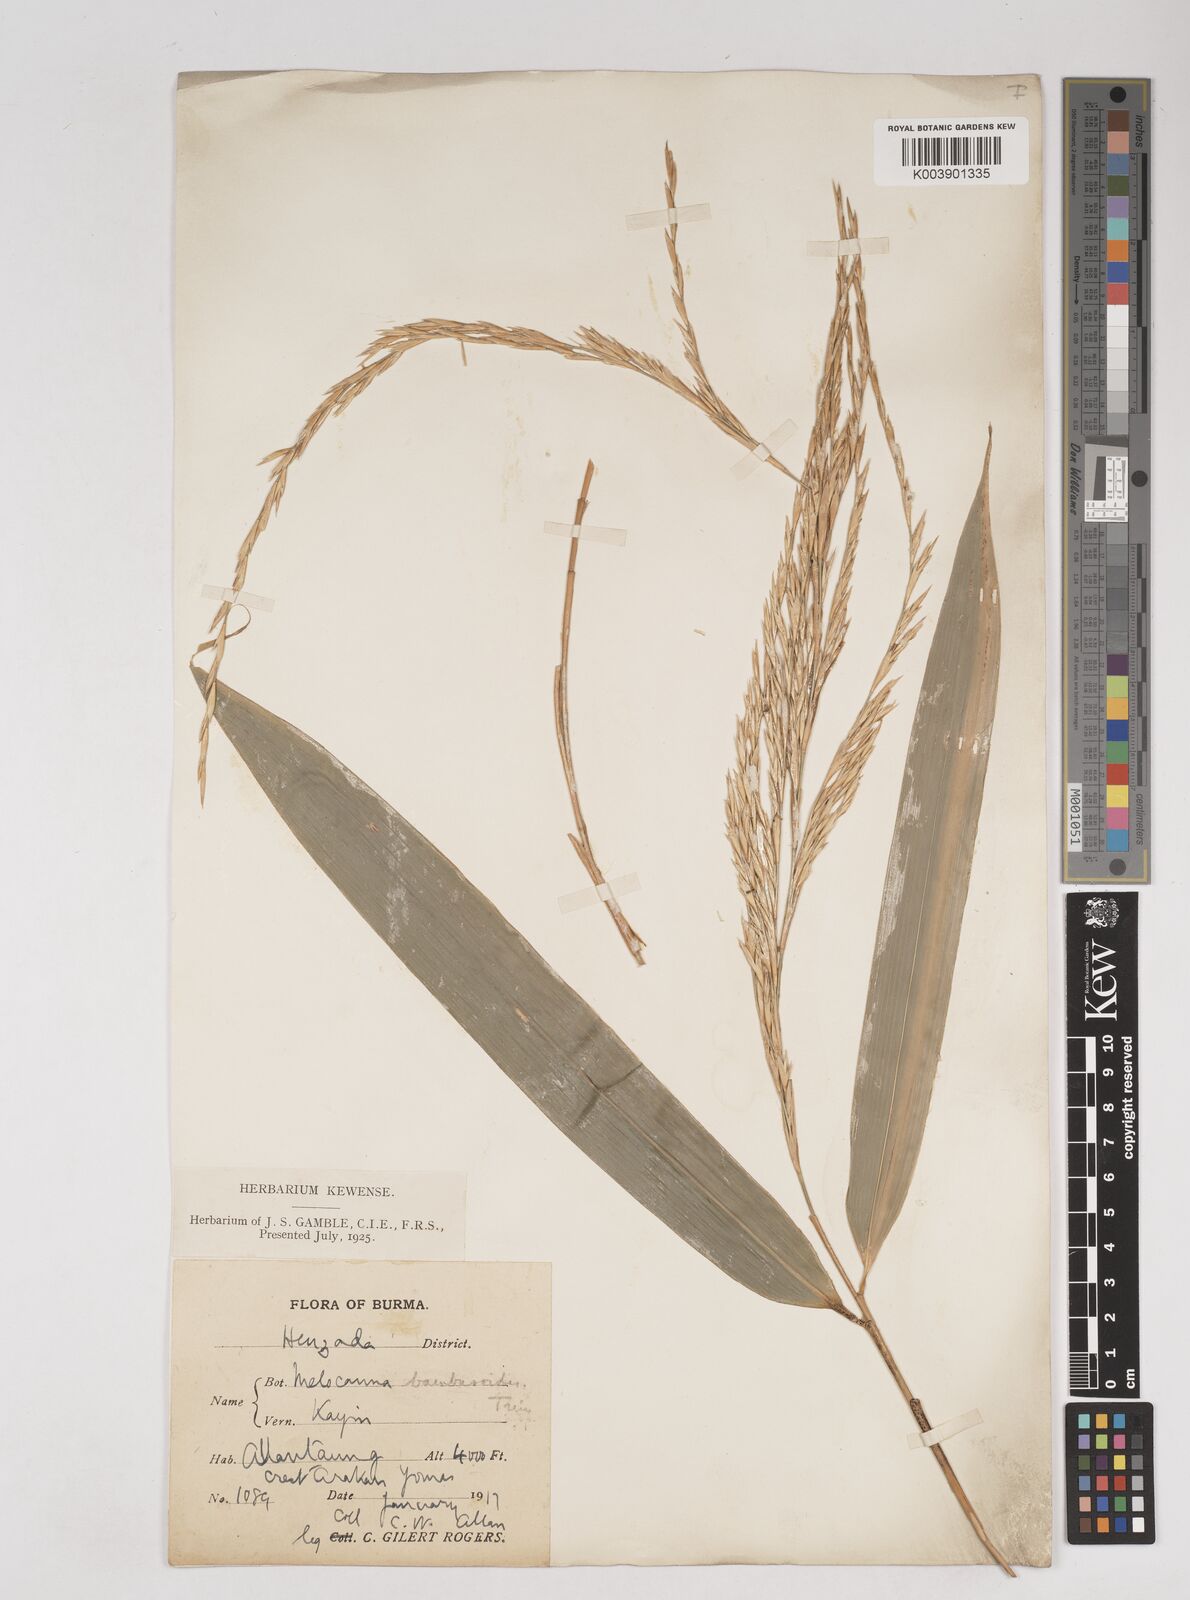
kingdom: Plantae
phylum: Tracheophyta
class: Liliopsida
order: Poales
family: Poaceae
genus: Melocanna
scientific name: Melocanna
